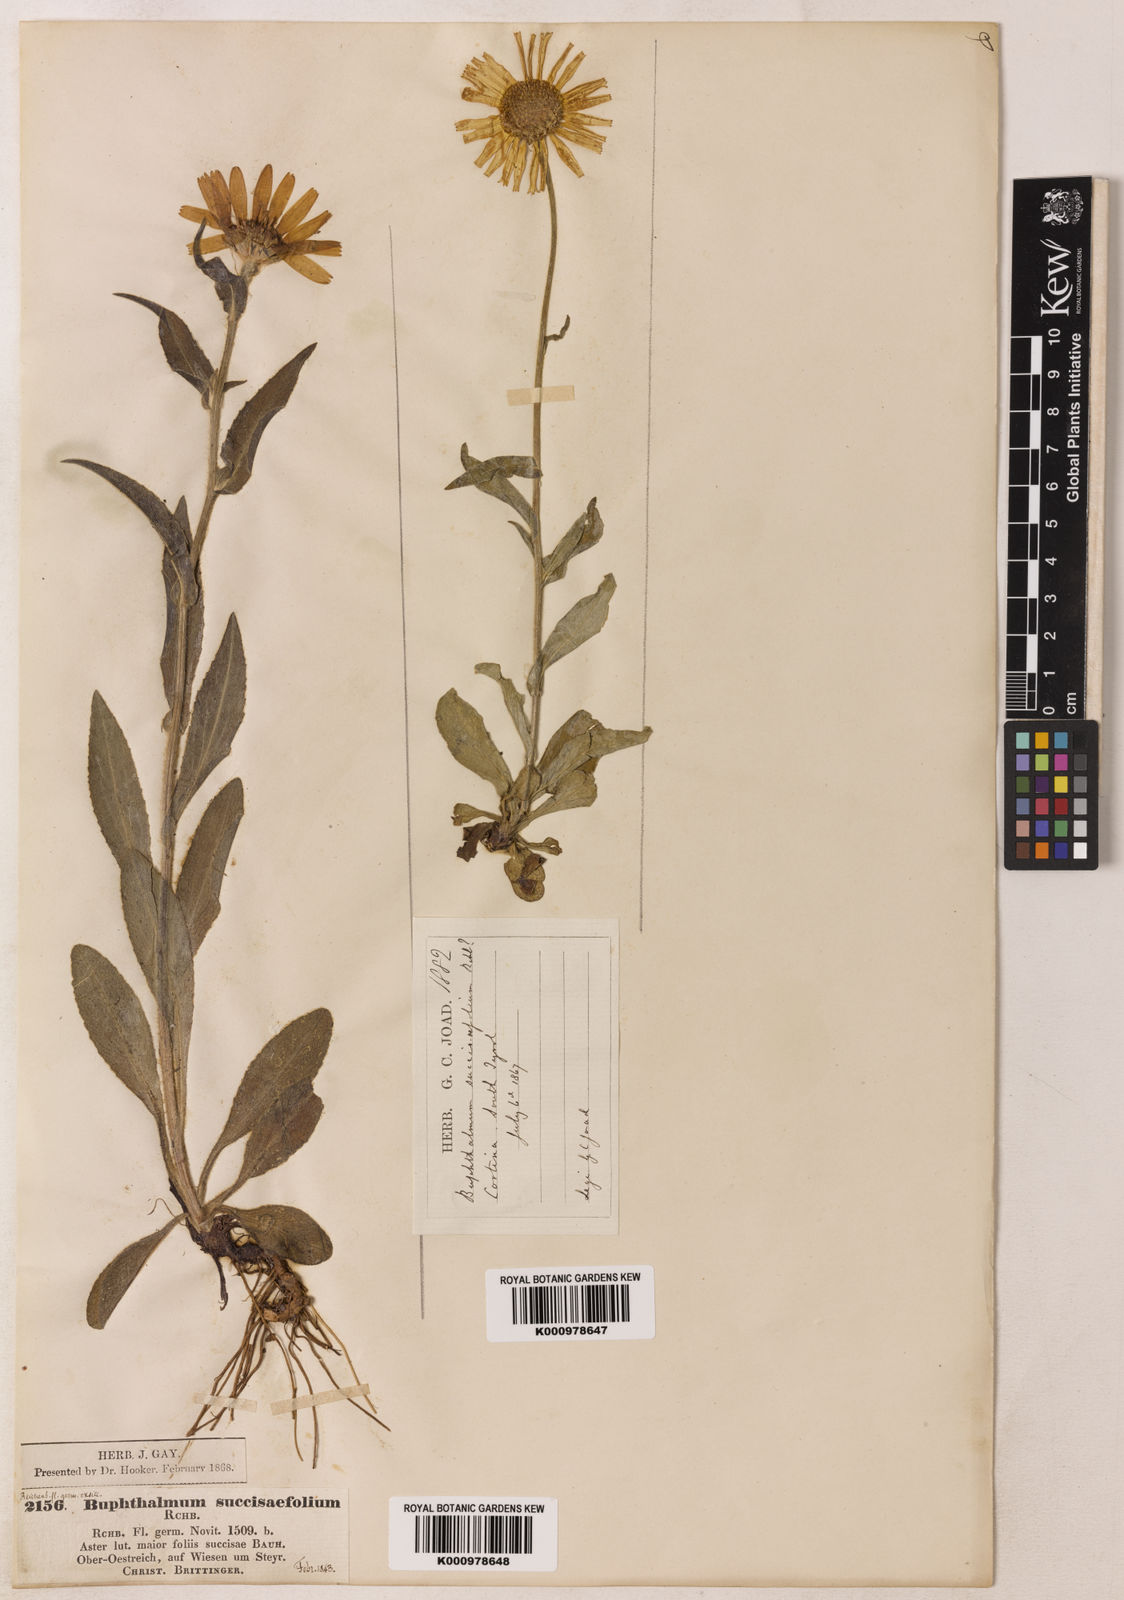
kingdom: Plantae
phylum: Tracheophyta
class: Magnoliopsida
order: Asterales
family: Asteraceae
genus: Buphthalmum
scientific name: Buphthalmum
